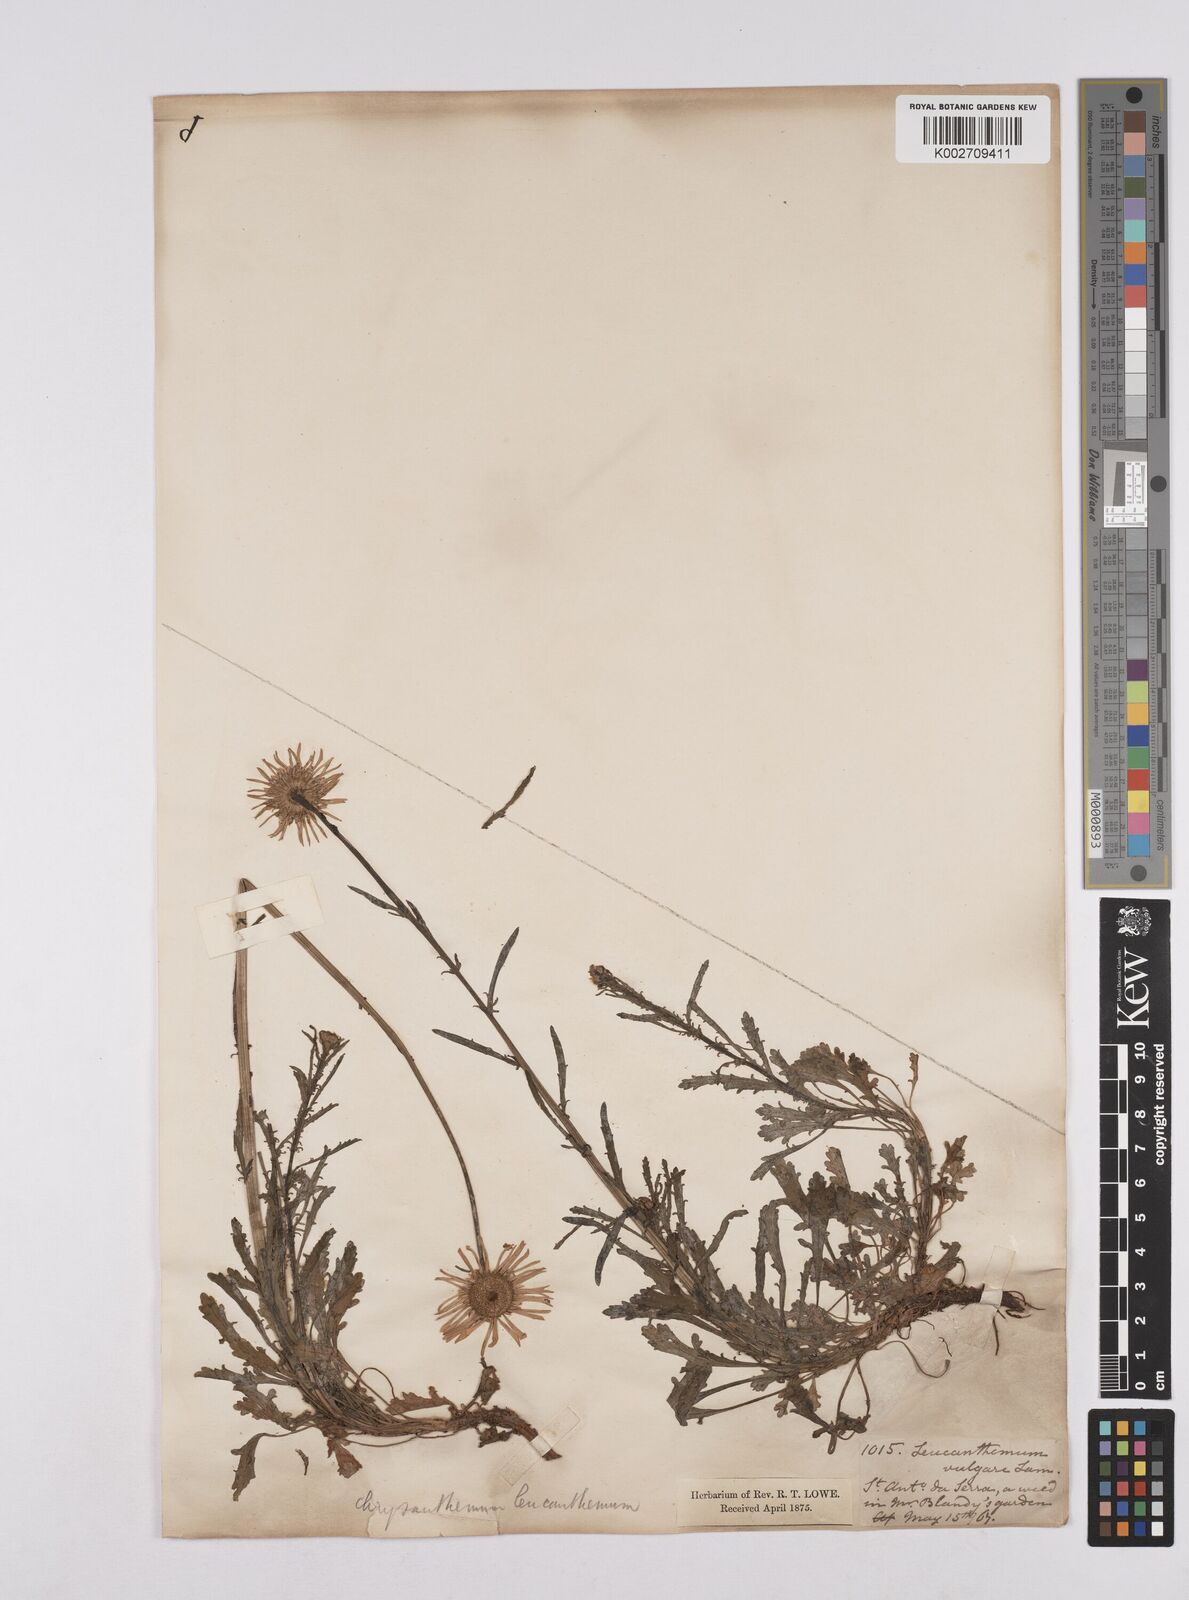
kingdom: Plantae
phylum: Tracheophyta
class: Magnoliopsida
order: Asterales
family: Asteraceae
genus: Leucanthemum
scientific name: Leucanthemum vulgare
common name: Oxeye daisy
